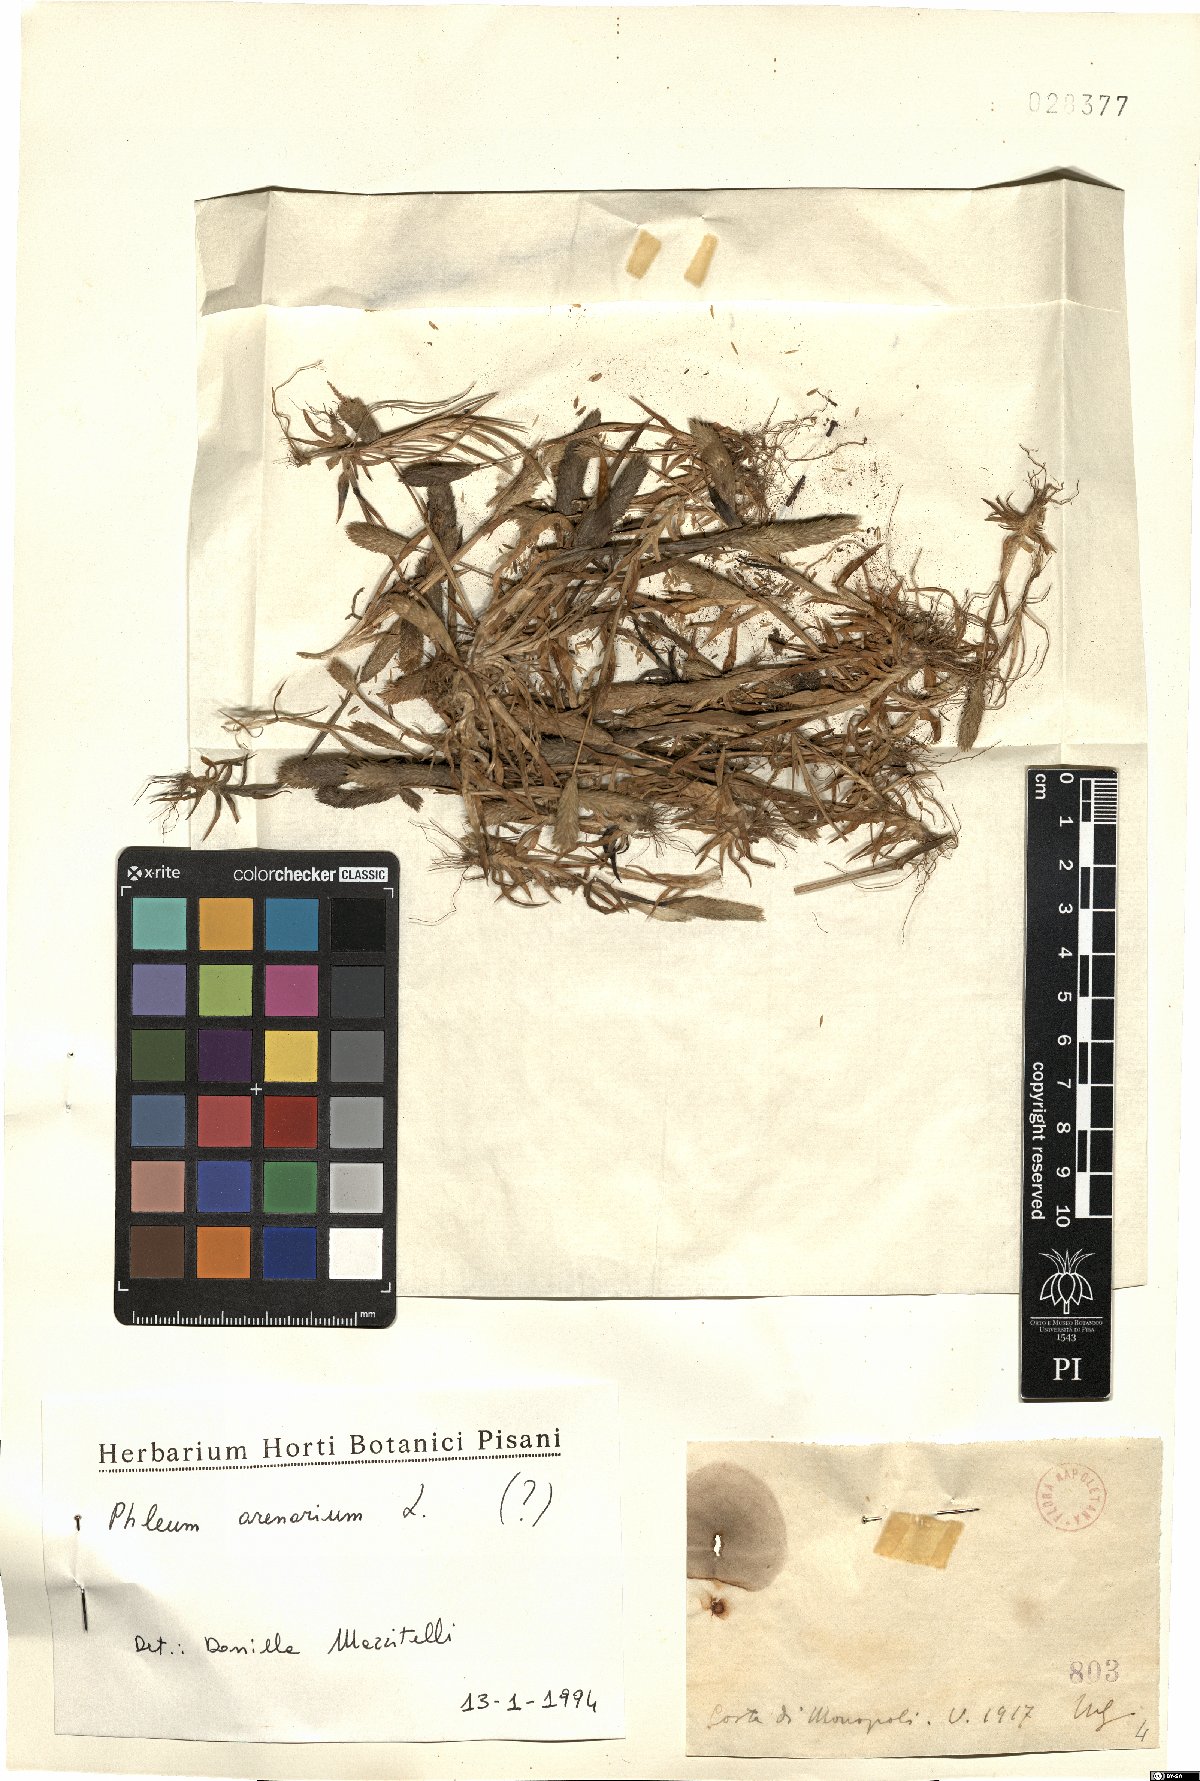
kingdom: Plantae
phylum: Tracheophyta
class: Liliopsida
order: Poales
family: Poaceae
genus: Phleum
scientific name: Phleum arenarium
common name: Sand cat's-tail
